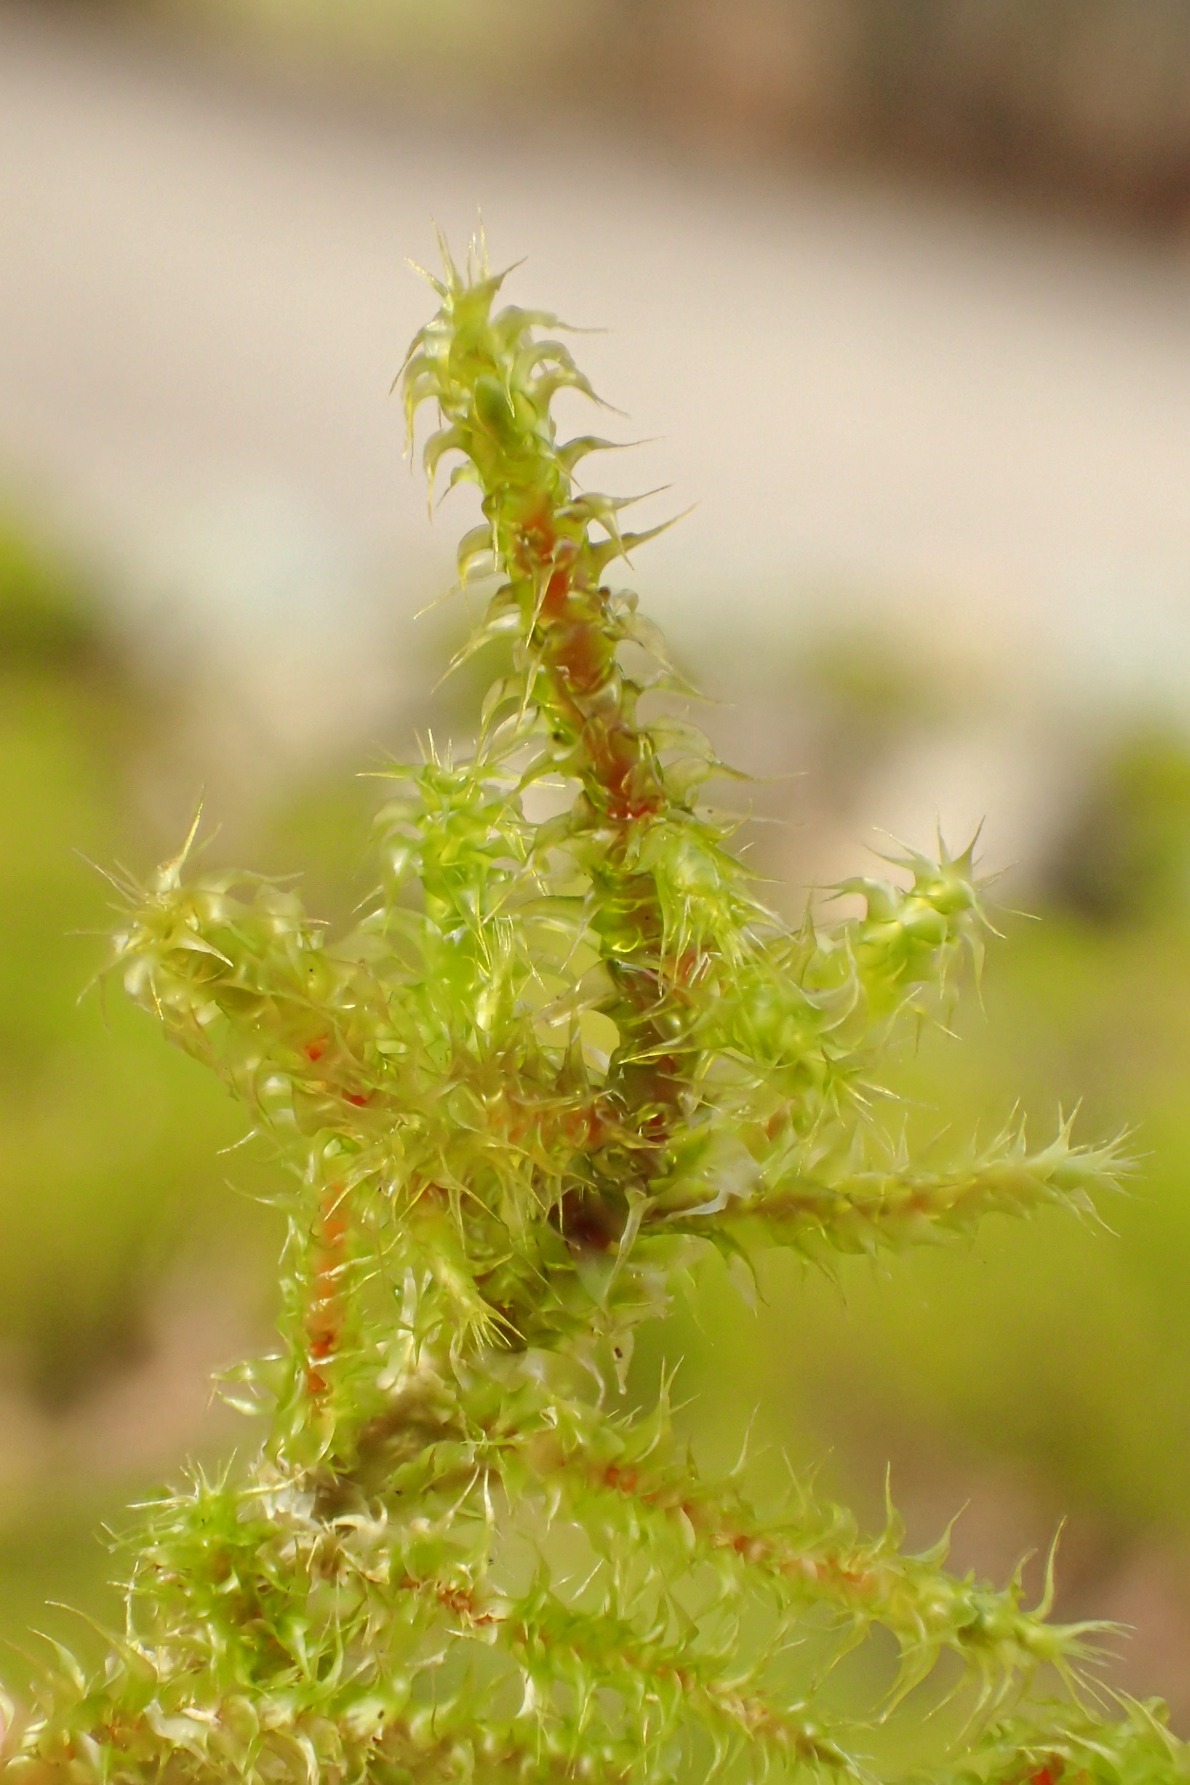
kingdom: Plantae
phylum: Bryophyta
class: Bryopsida
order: Hypnales
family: Hylocomiaceae
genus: Rhytidiadelphus
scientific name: Rhytidiadelphus squarrosus
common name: Plæne-kransemos
